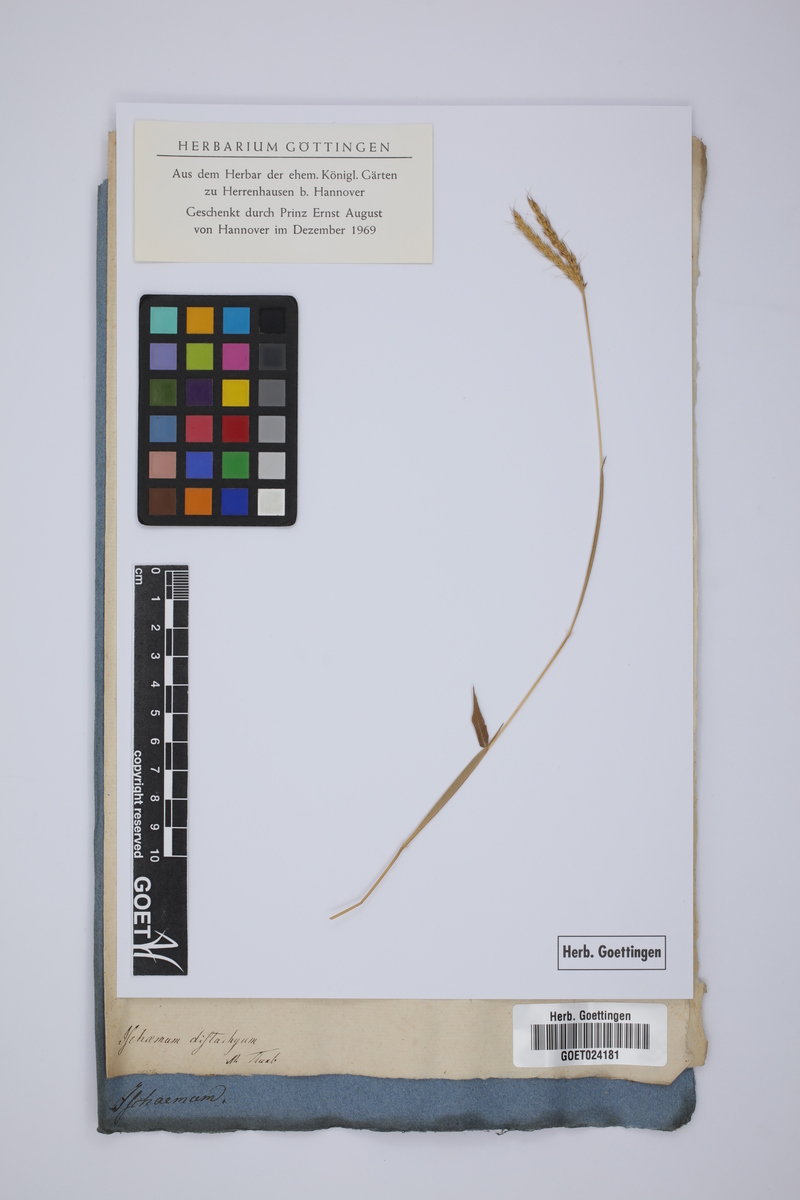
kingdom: Plantae
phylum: Tracheophyta
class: Liliopsida
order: Poales
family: Poaceae
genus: Ischaemum
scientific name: Ischaemum
